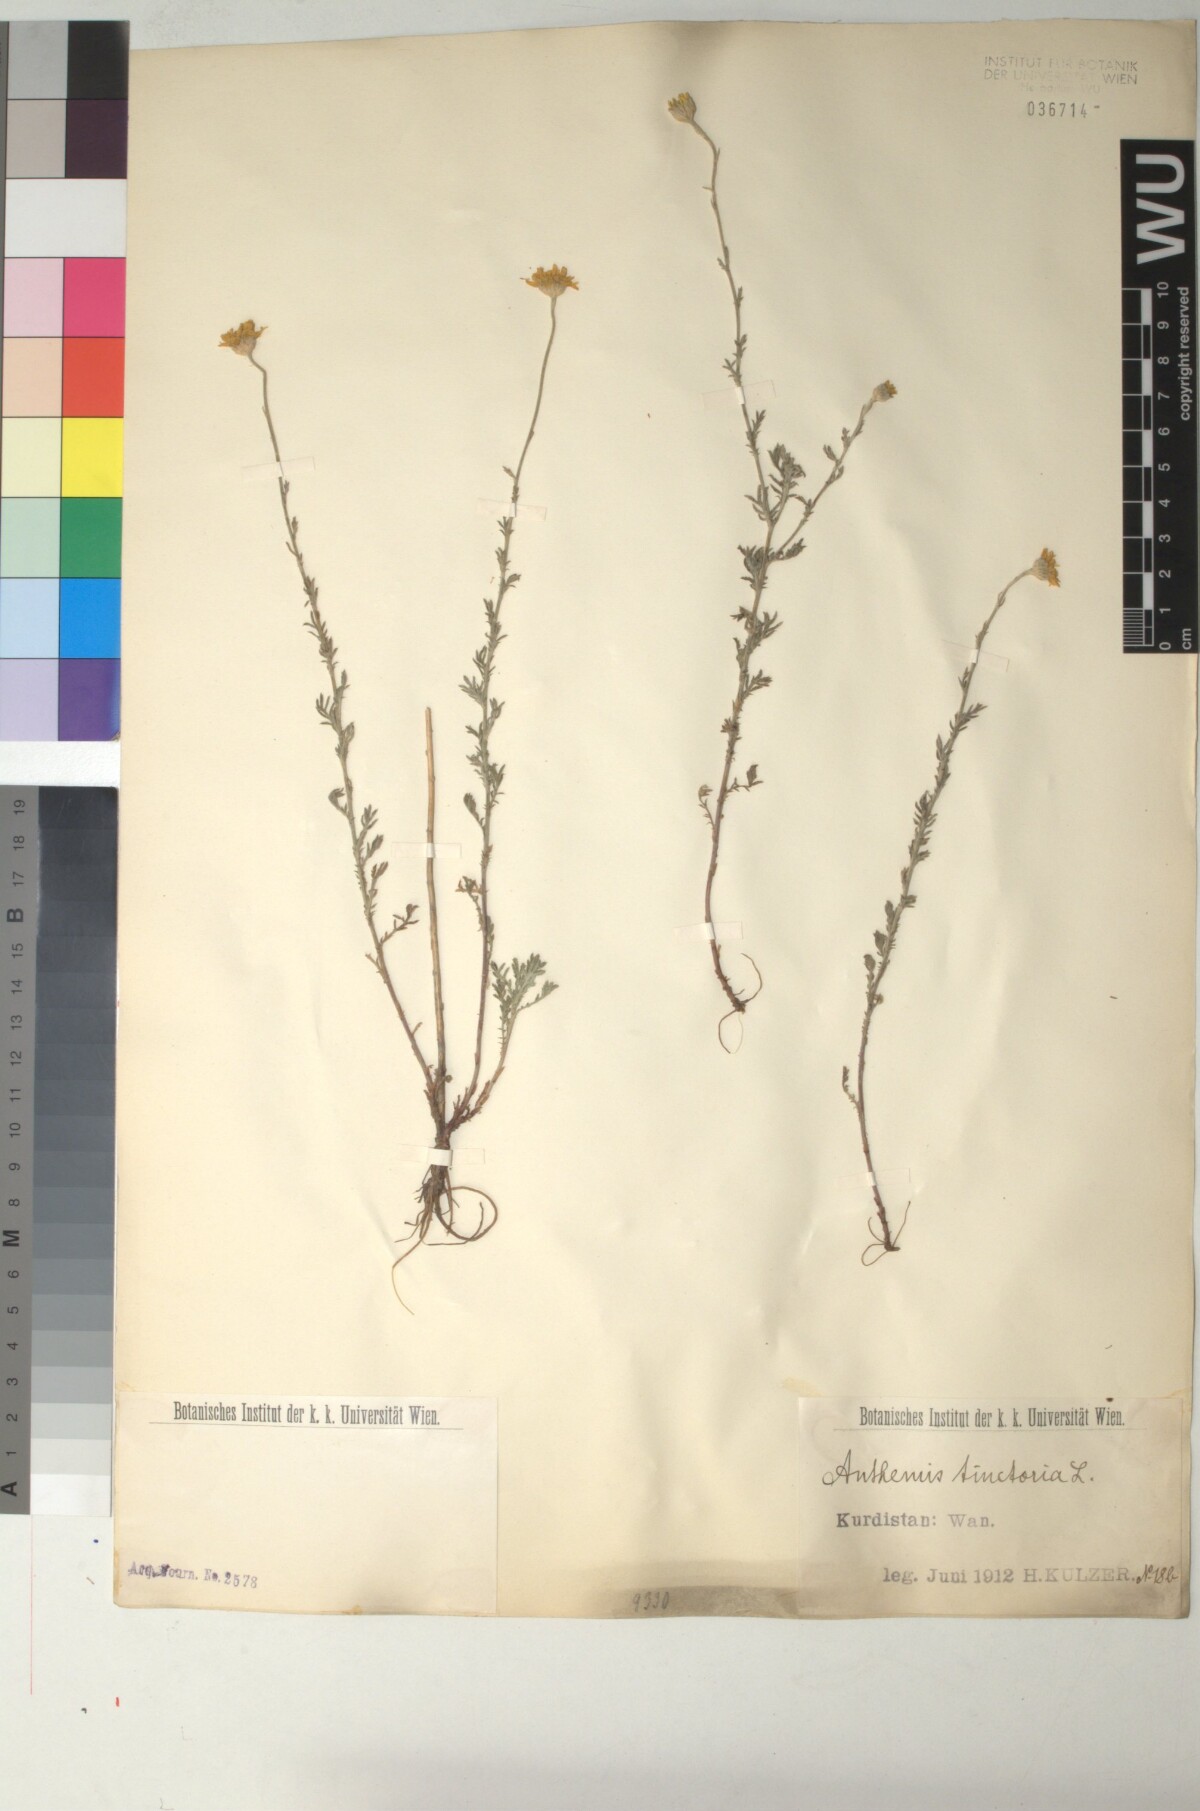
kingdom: Plantae
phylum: Tracheophyta
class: Magnoliopsida
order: Asterales
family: Asteraceae
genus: Cota
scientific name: Cota tinctoria
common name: Golden chamomile
